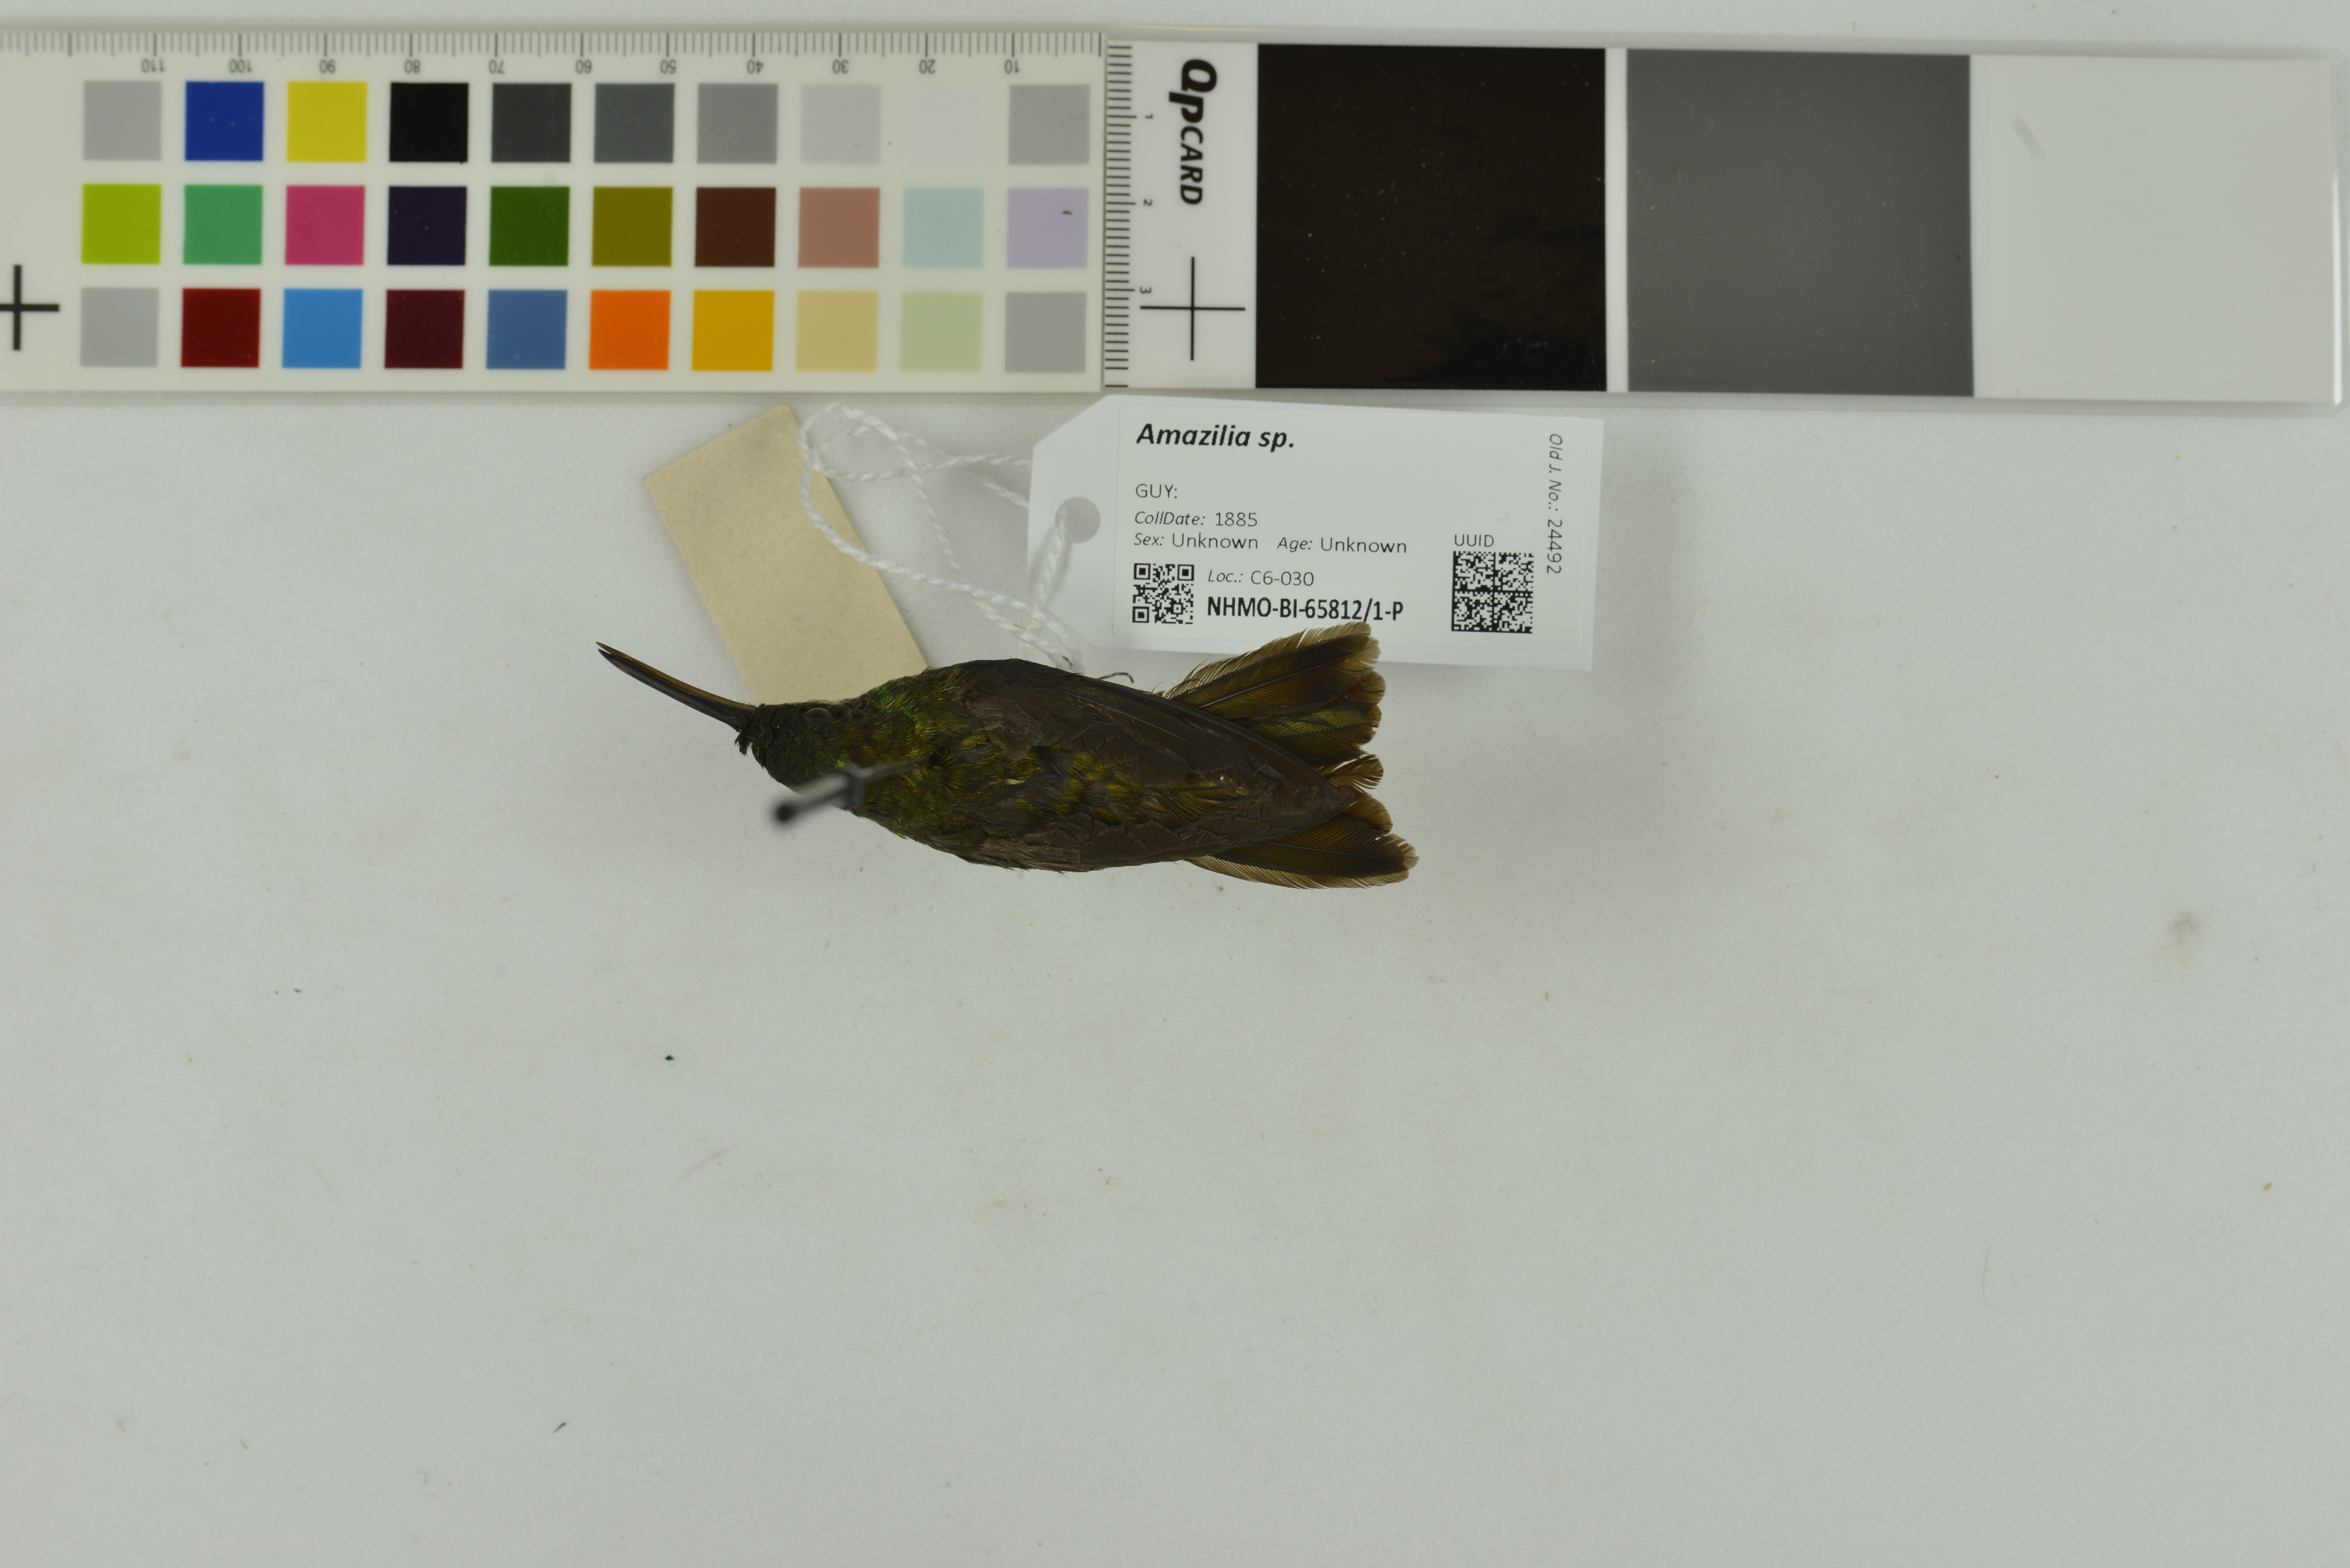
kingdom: Animalia
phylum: Chordata
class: Aves
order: Apodiformes
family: Trochilidae
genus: Amazilia
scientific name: Amazilia
